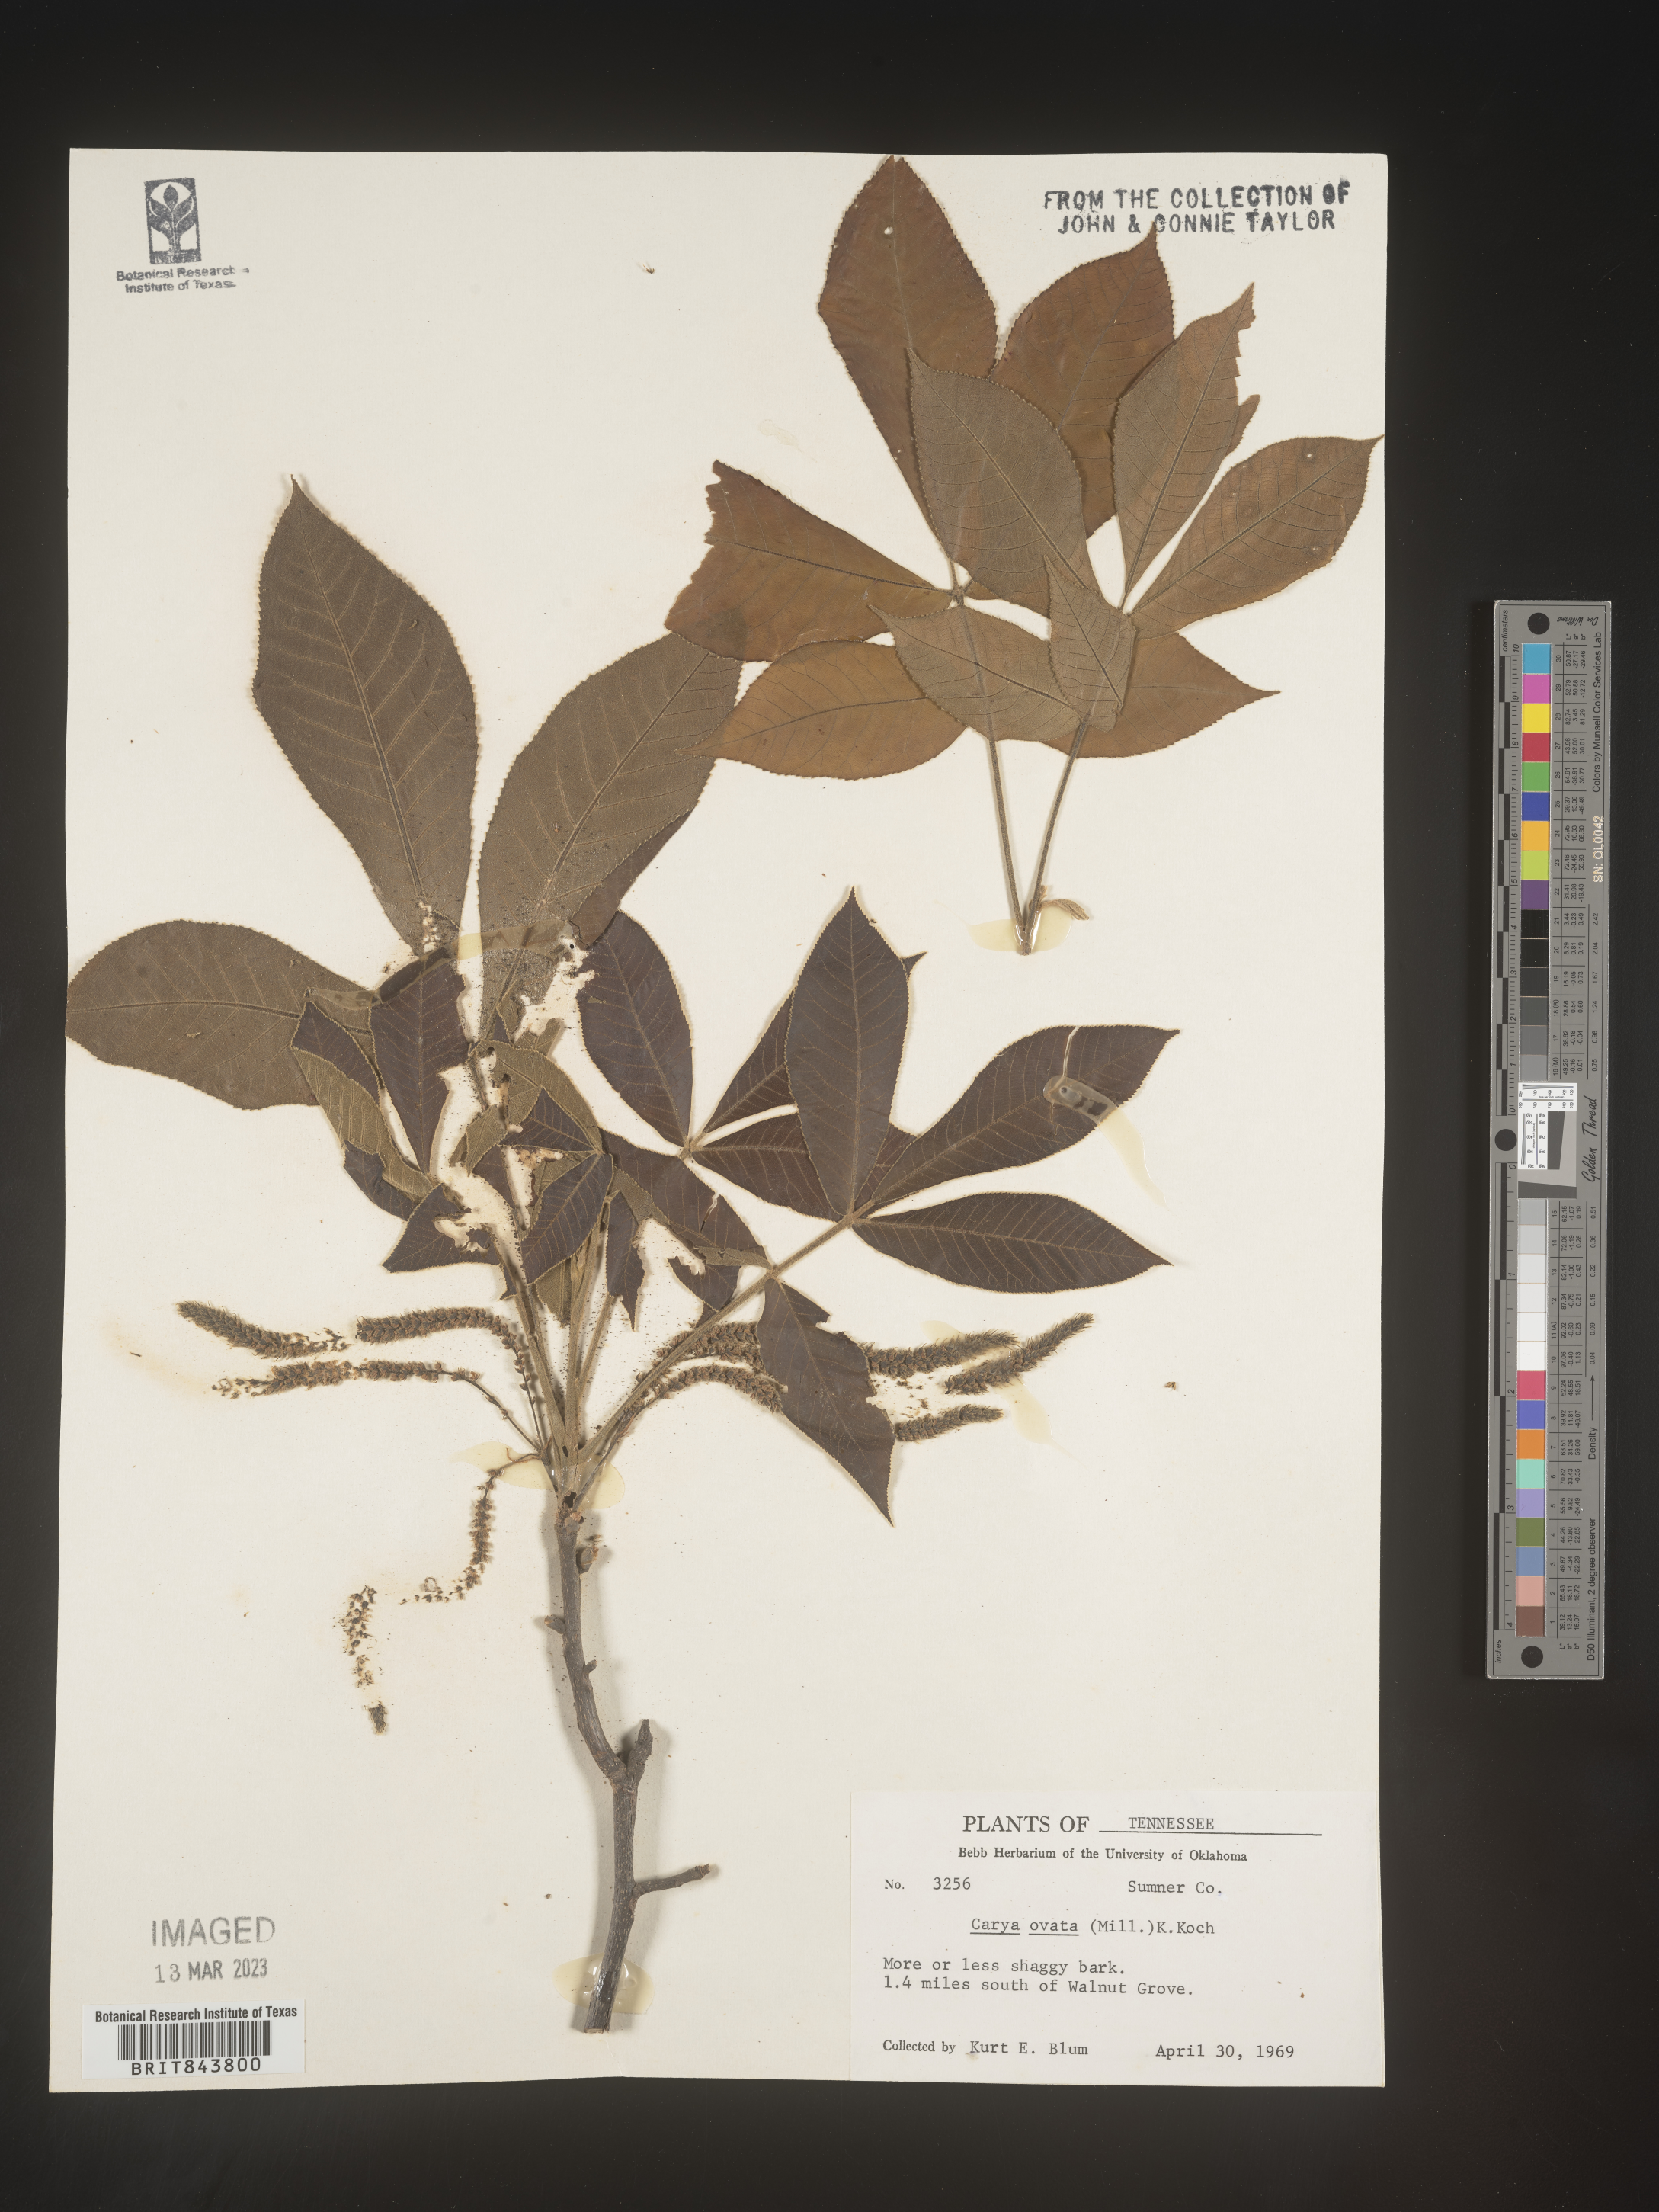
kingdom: Plantae
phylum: Tracheophyta
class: Magnoliopsida
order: Fagales
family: Juglandaceae
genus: Carya
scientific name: Carya ovata
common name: Shagbark hickory
